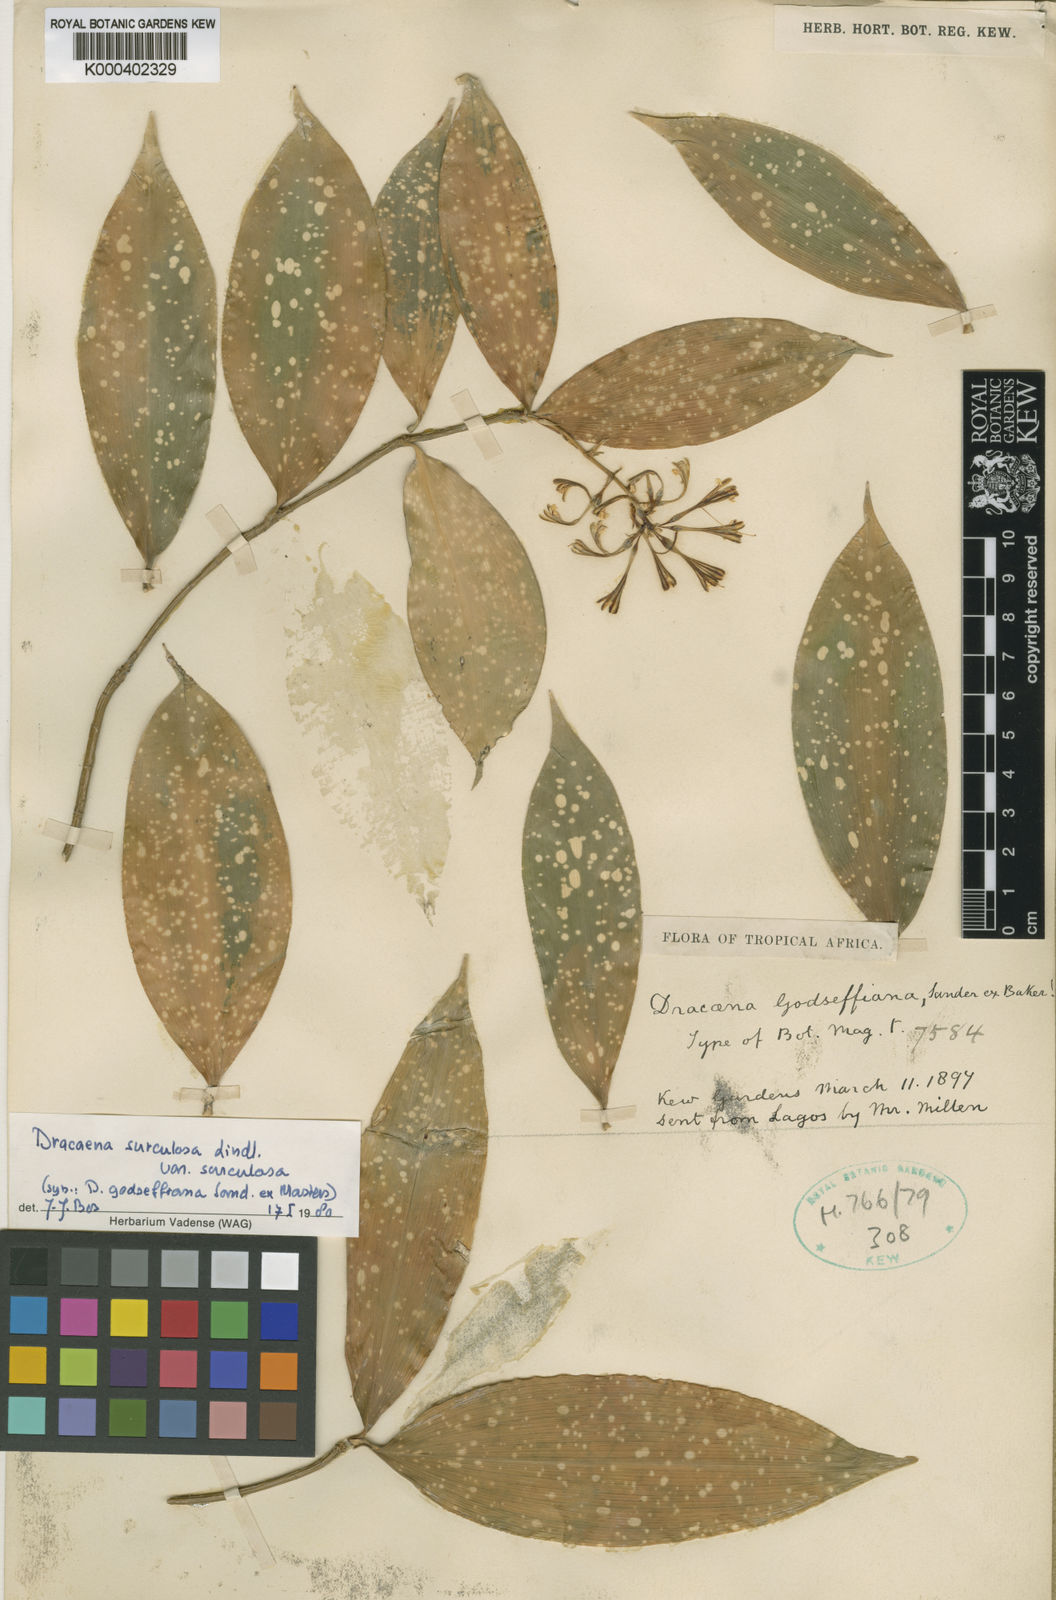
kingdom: Plantae
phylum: Tracheophyta
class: Liliopsida
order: Asparagales
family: Asparagaceae
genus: Dracaena
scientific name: Dracaena surculosa
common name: Spotted dracaena
